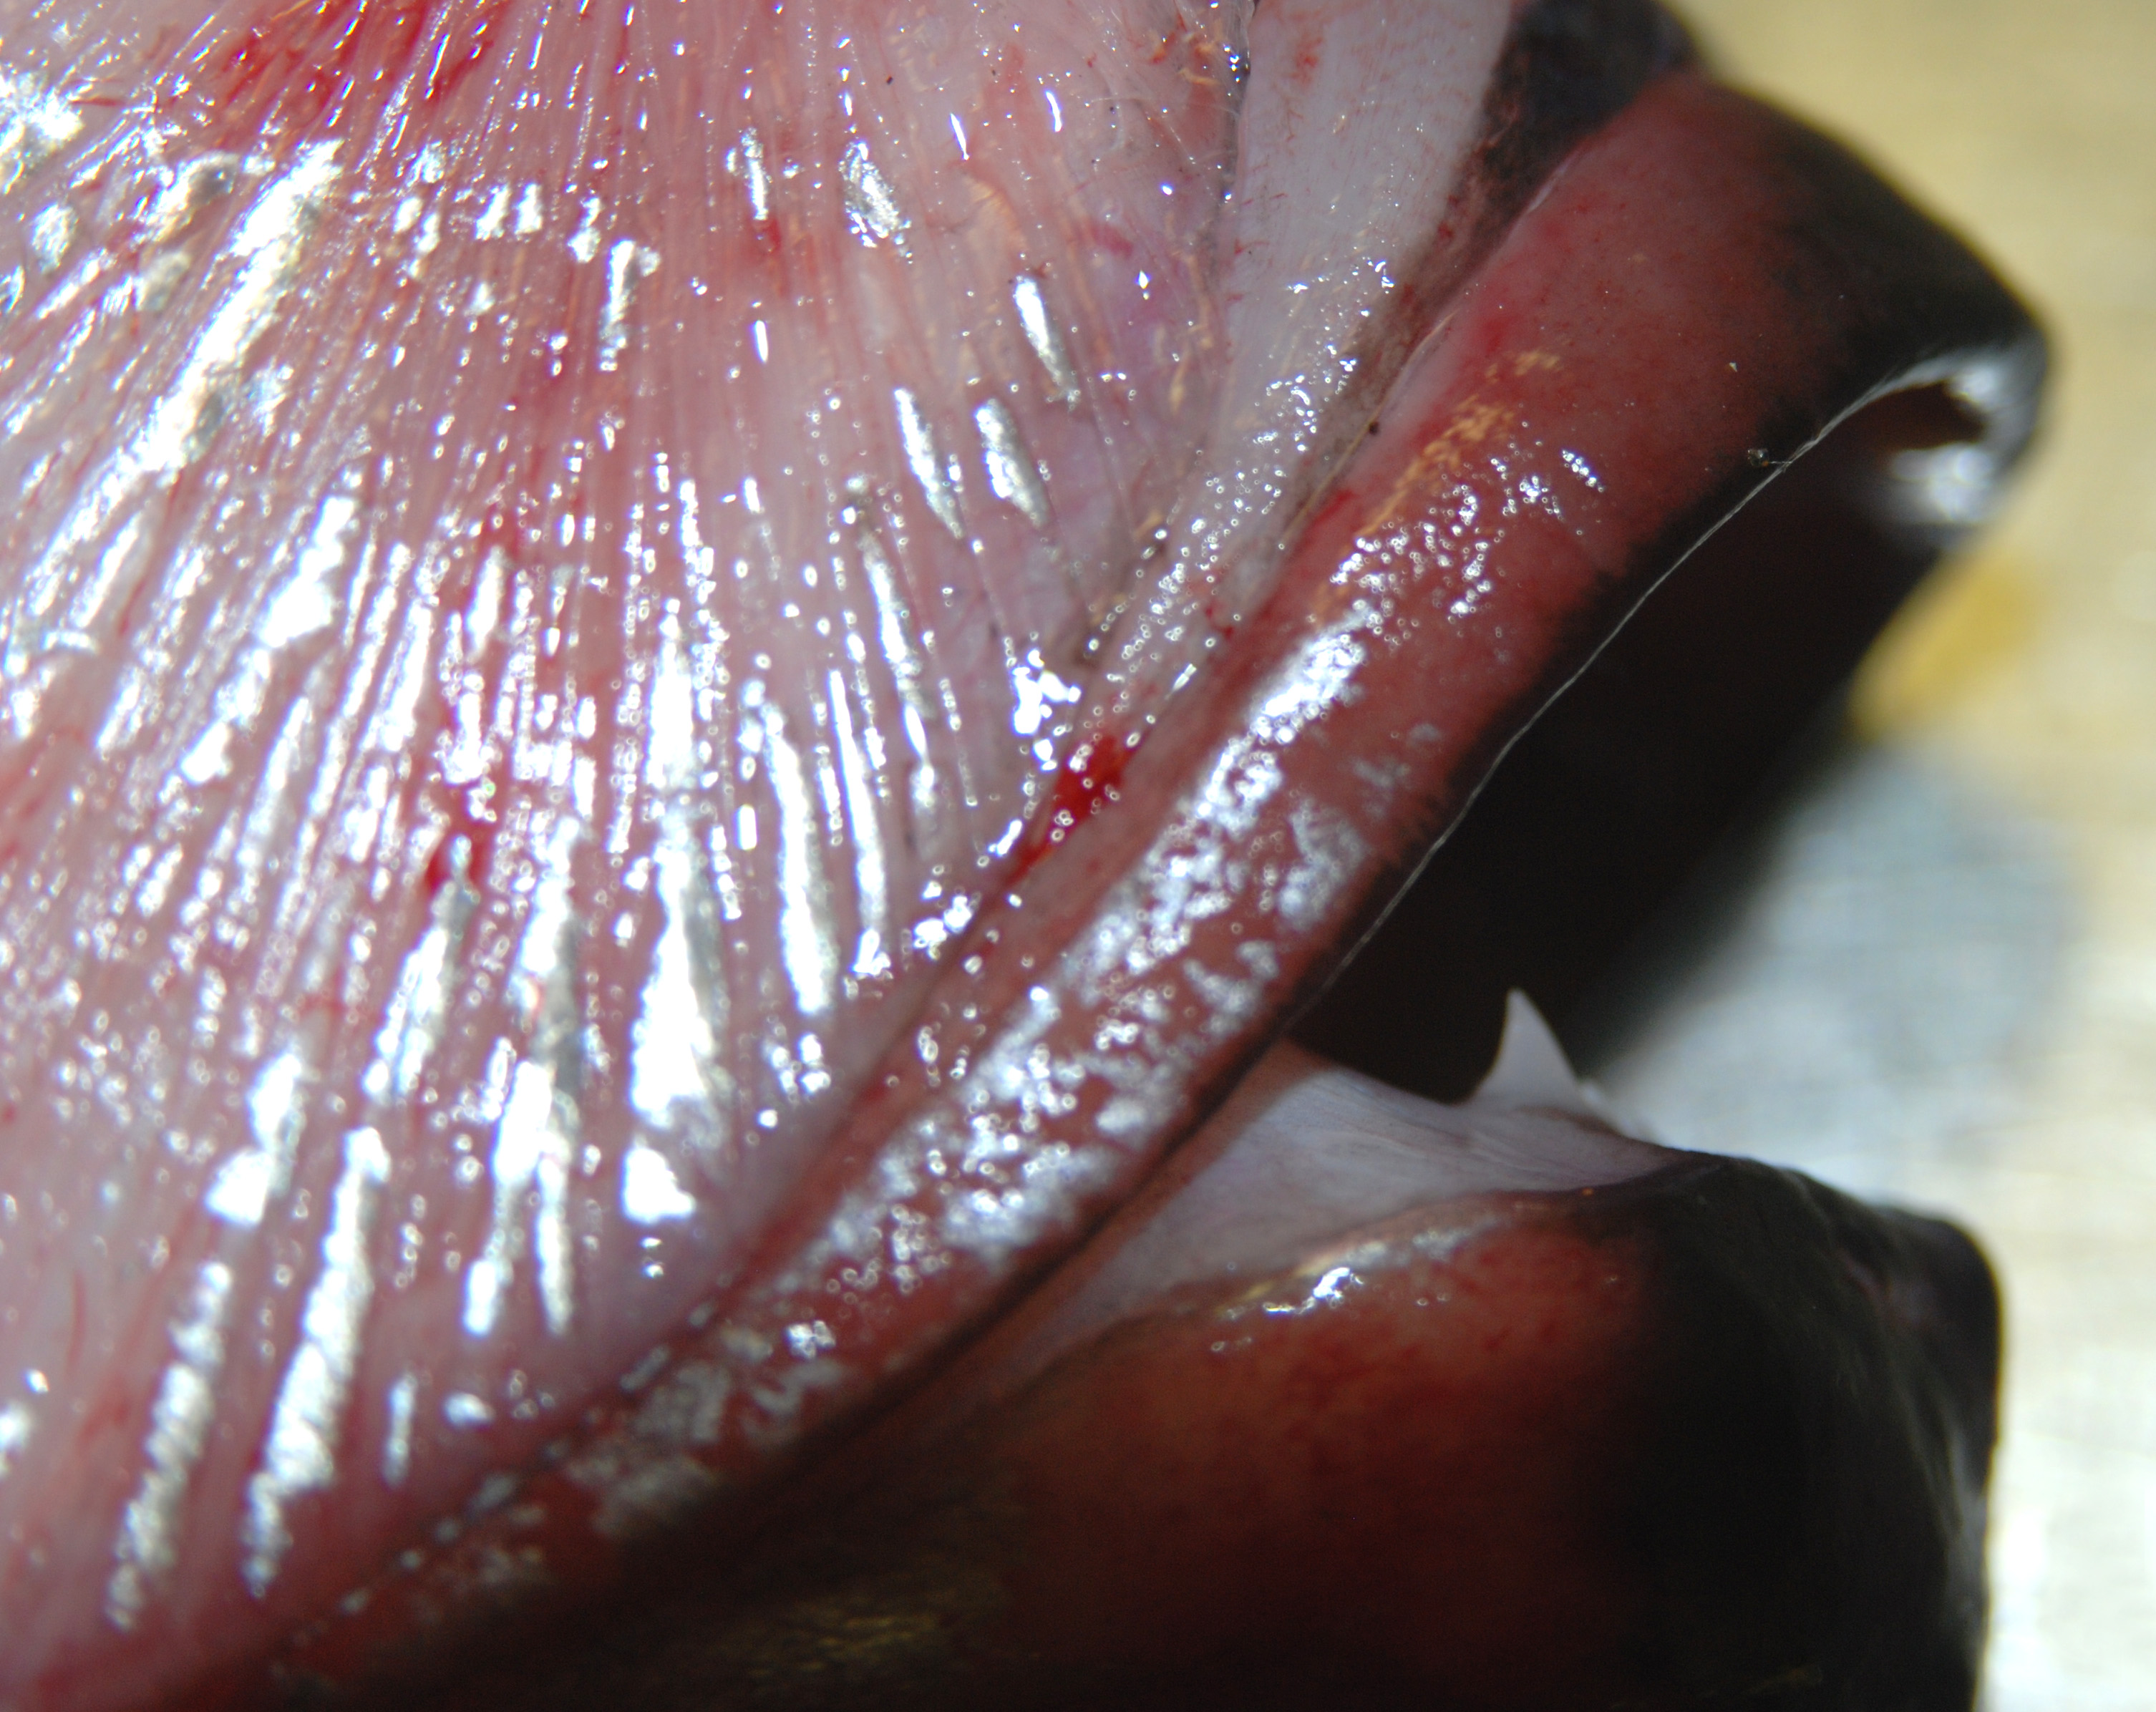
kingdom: Animalia
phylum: Chordata
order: Lampriformes
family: Trachipteridae
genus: Trachipterus
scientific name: Trachipterus trachypterus
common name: Dealfish
